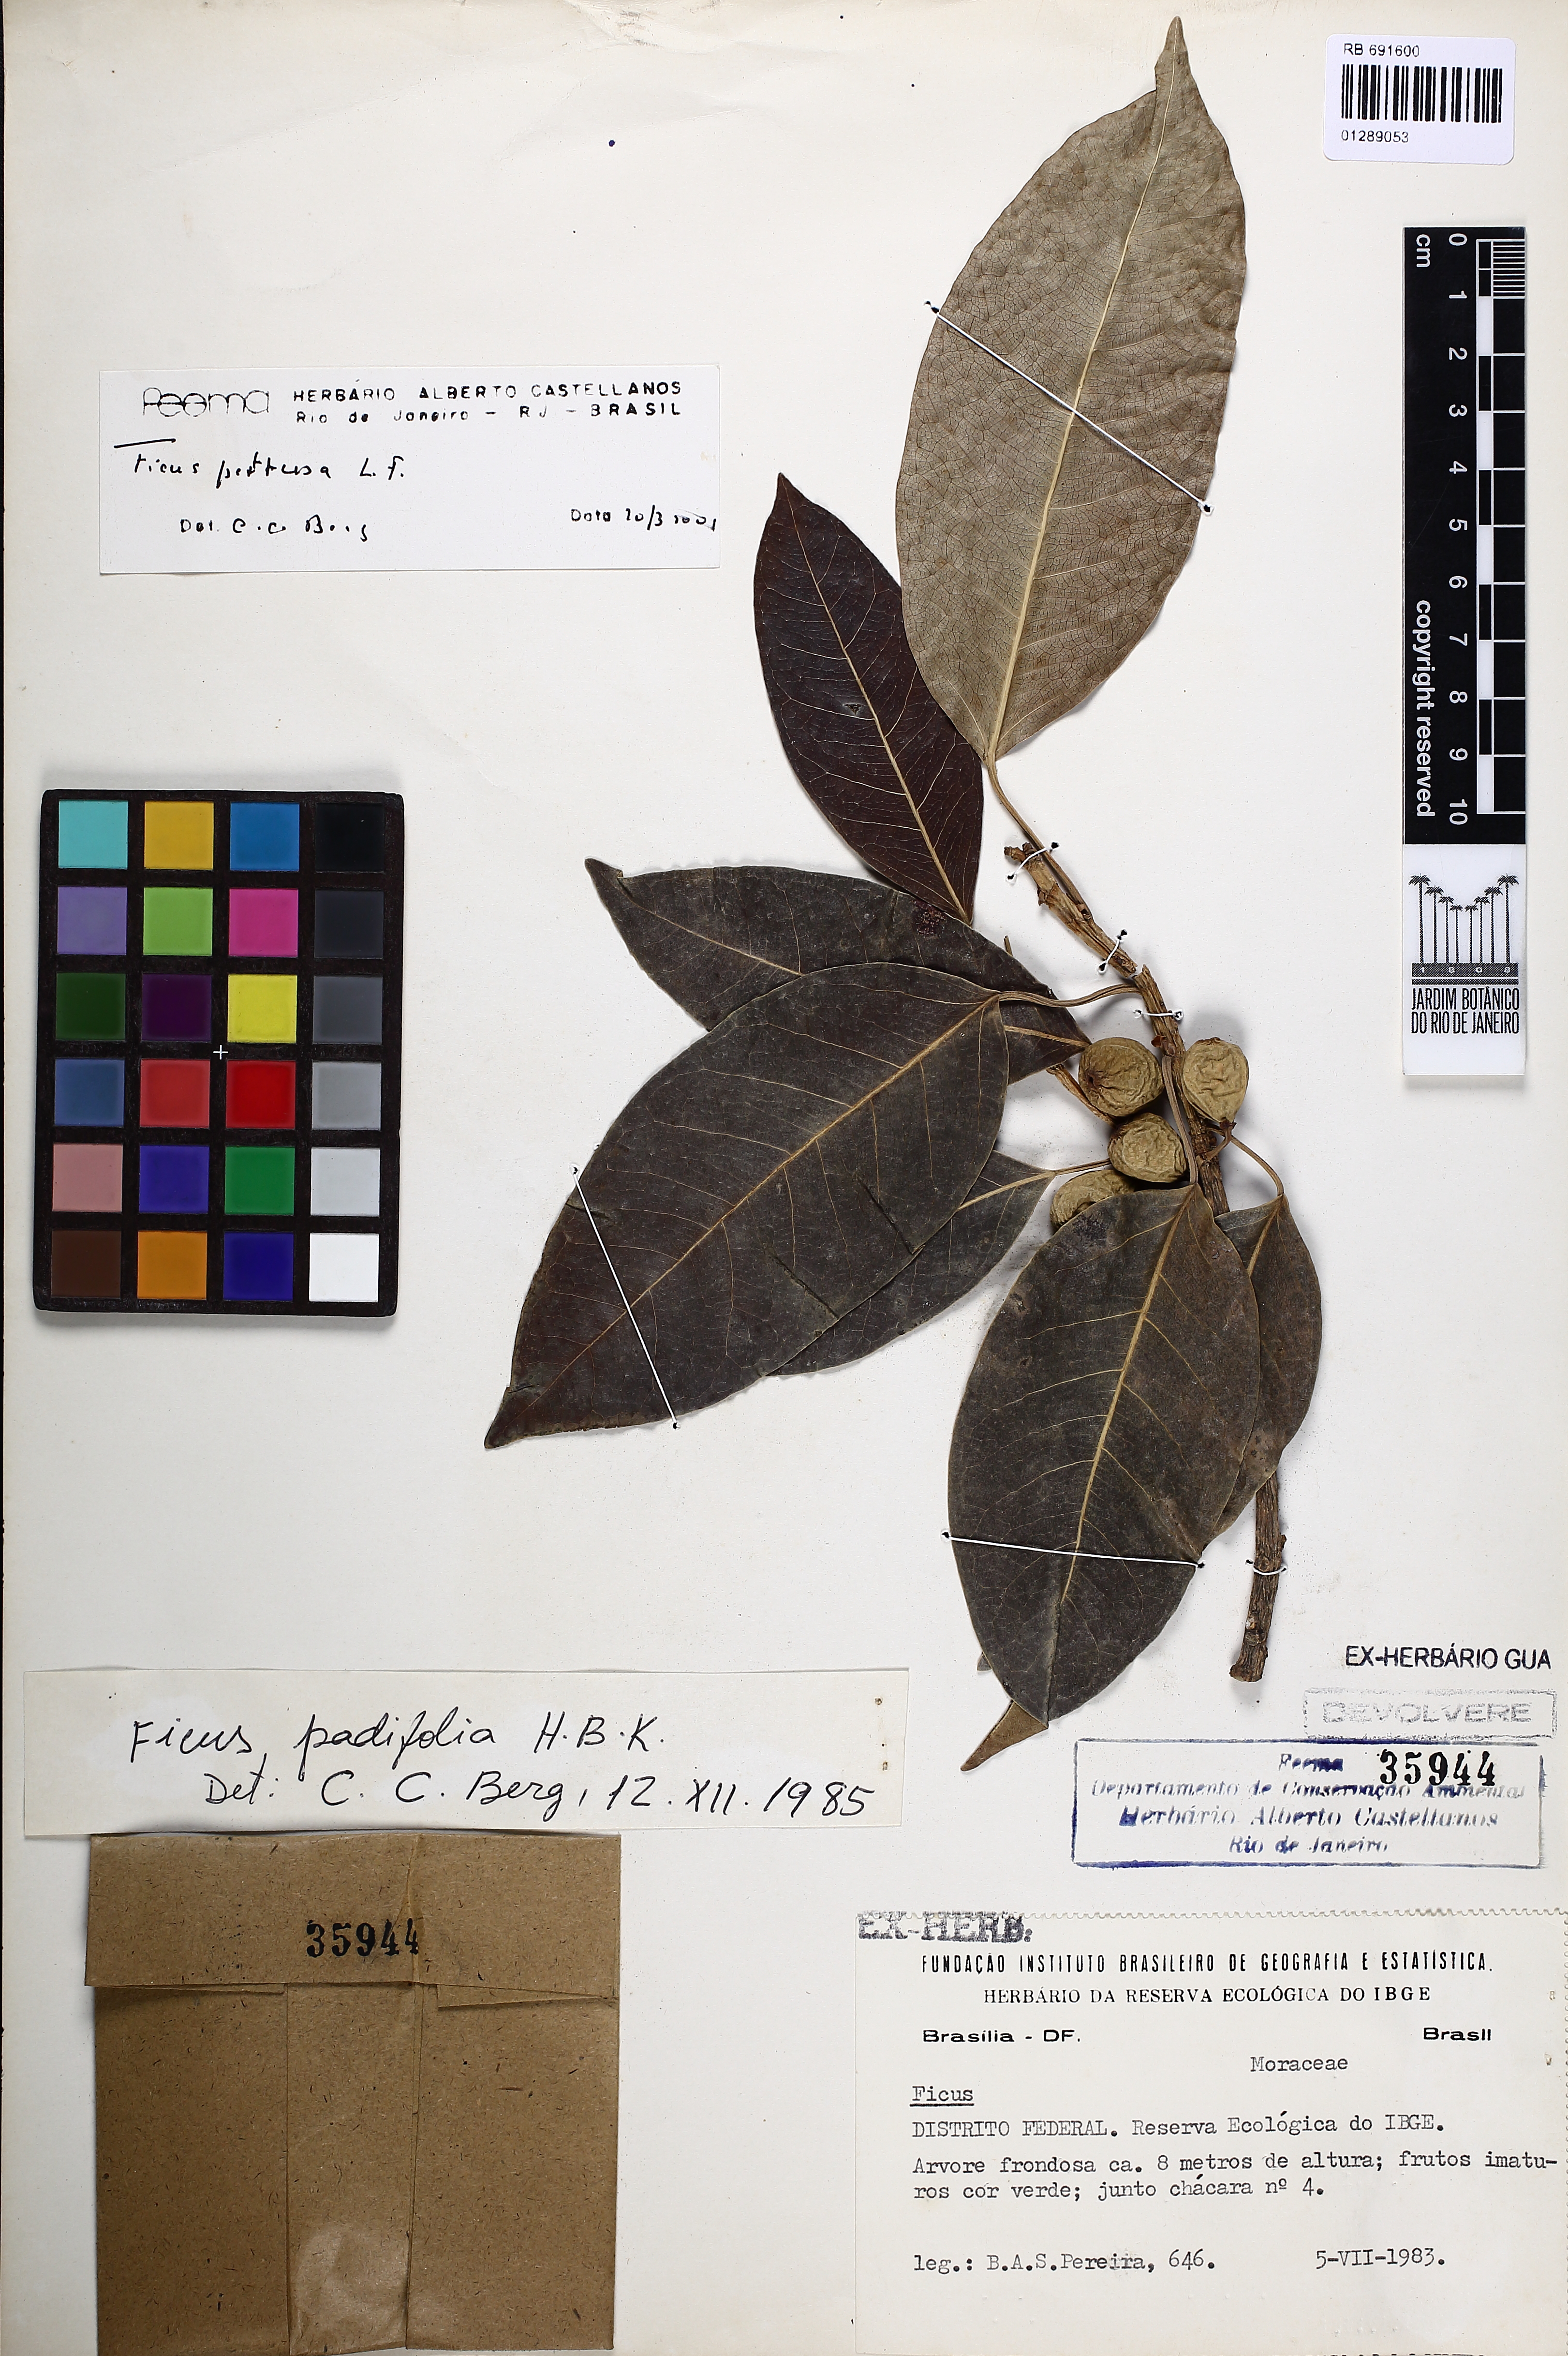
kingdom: Plantae
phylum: Tracheophyta
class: Magnoliopsida
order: Rosales
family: Moraceae
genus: Ficus
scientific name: Ficus pertusa
